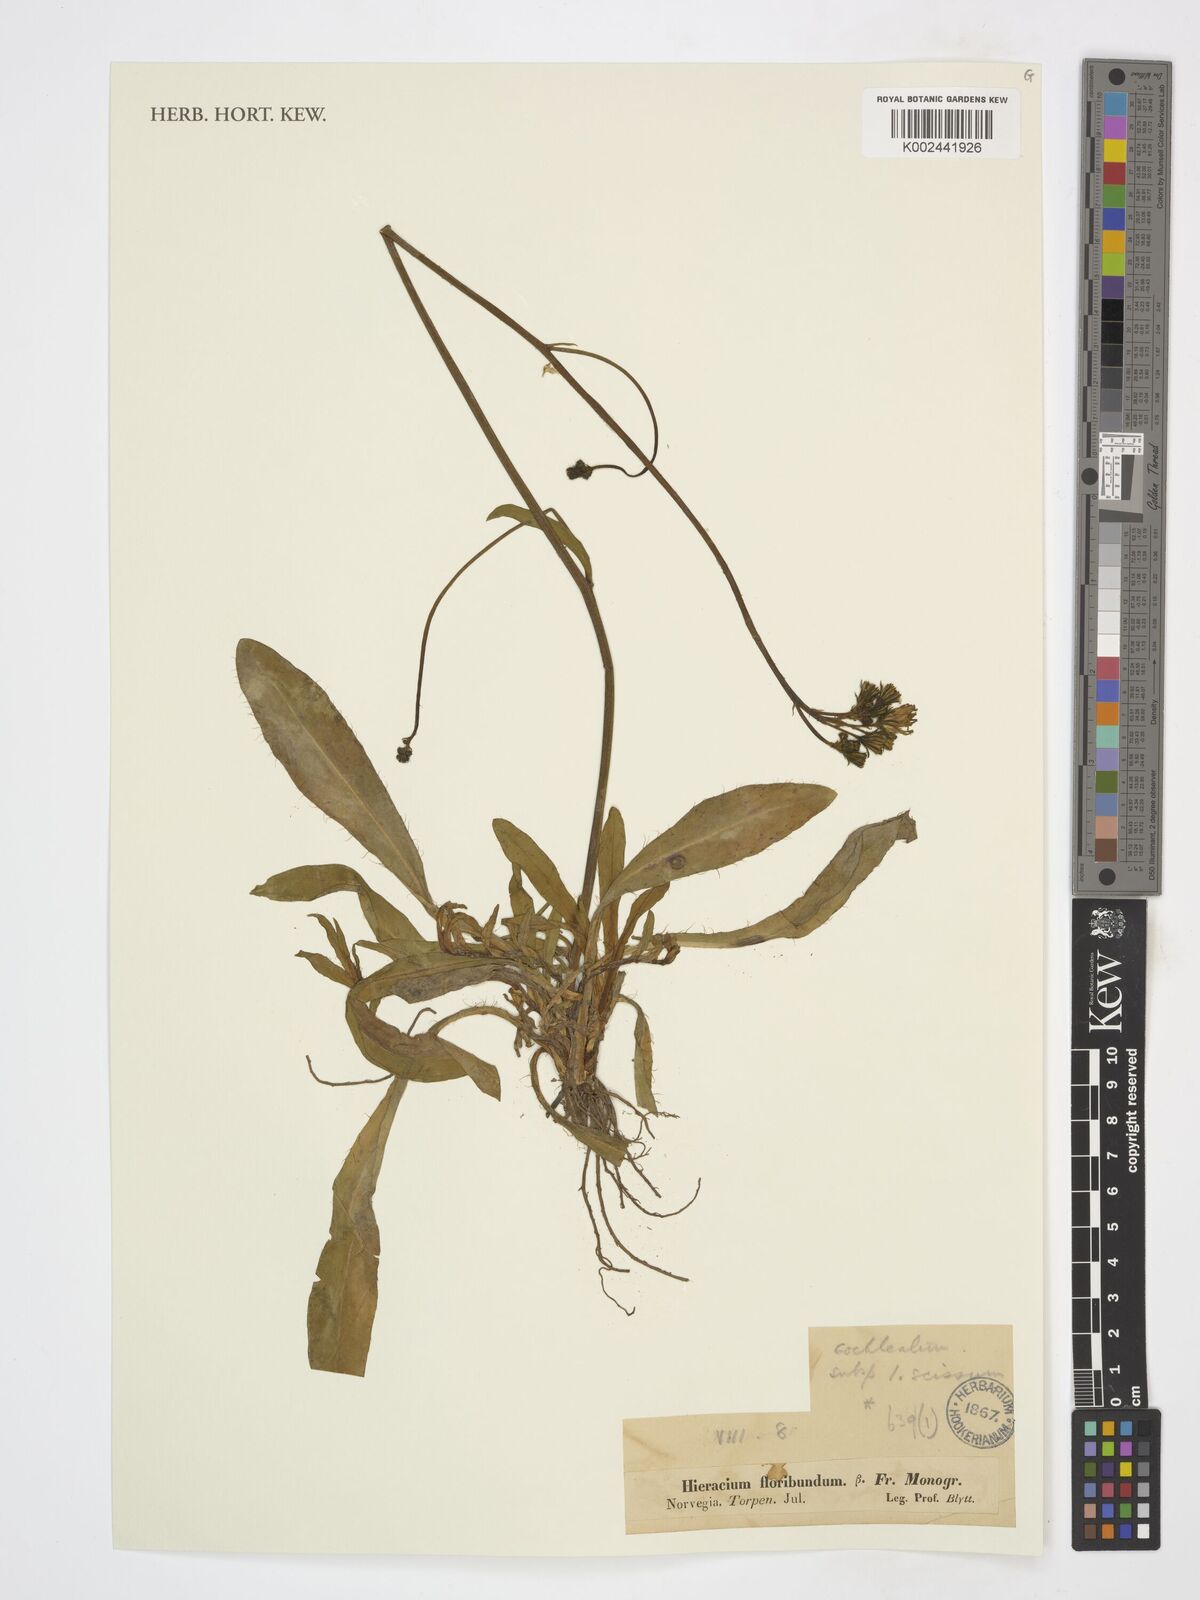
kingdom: Plantae
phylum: Tracheophyta
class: Magnoliopsida
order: Asterales
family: Asteraceae
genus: Pilosella
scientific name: Pilosella floribunda
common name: Glaucous hawkweed
